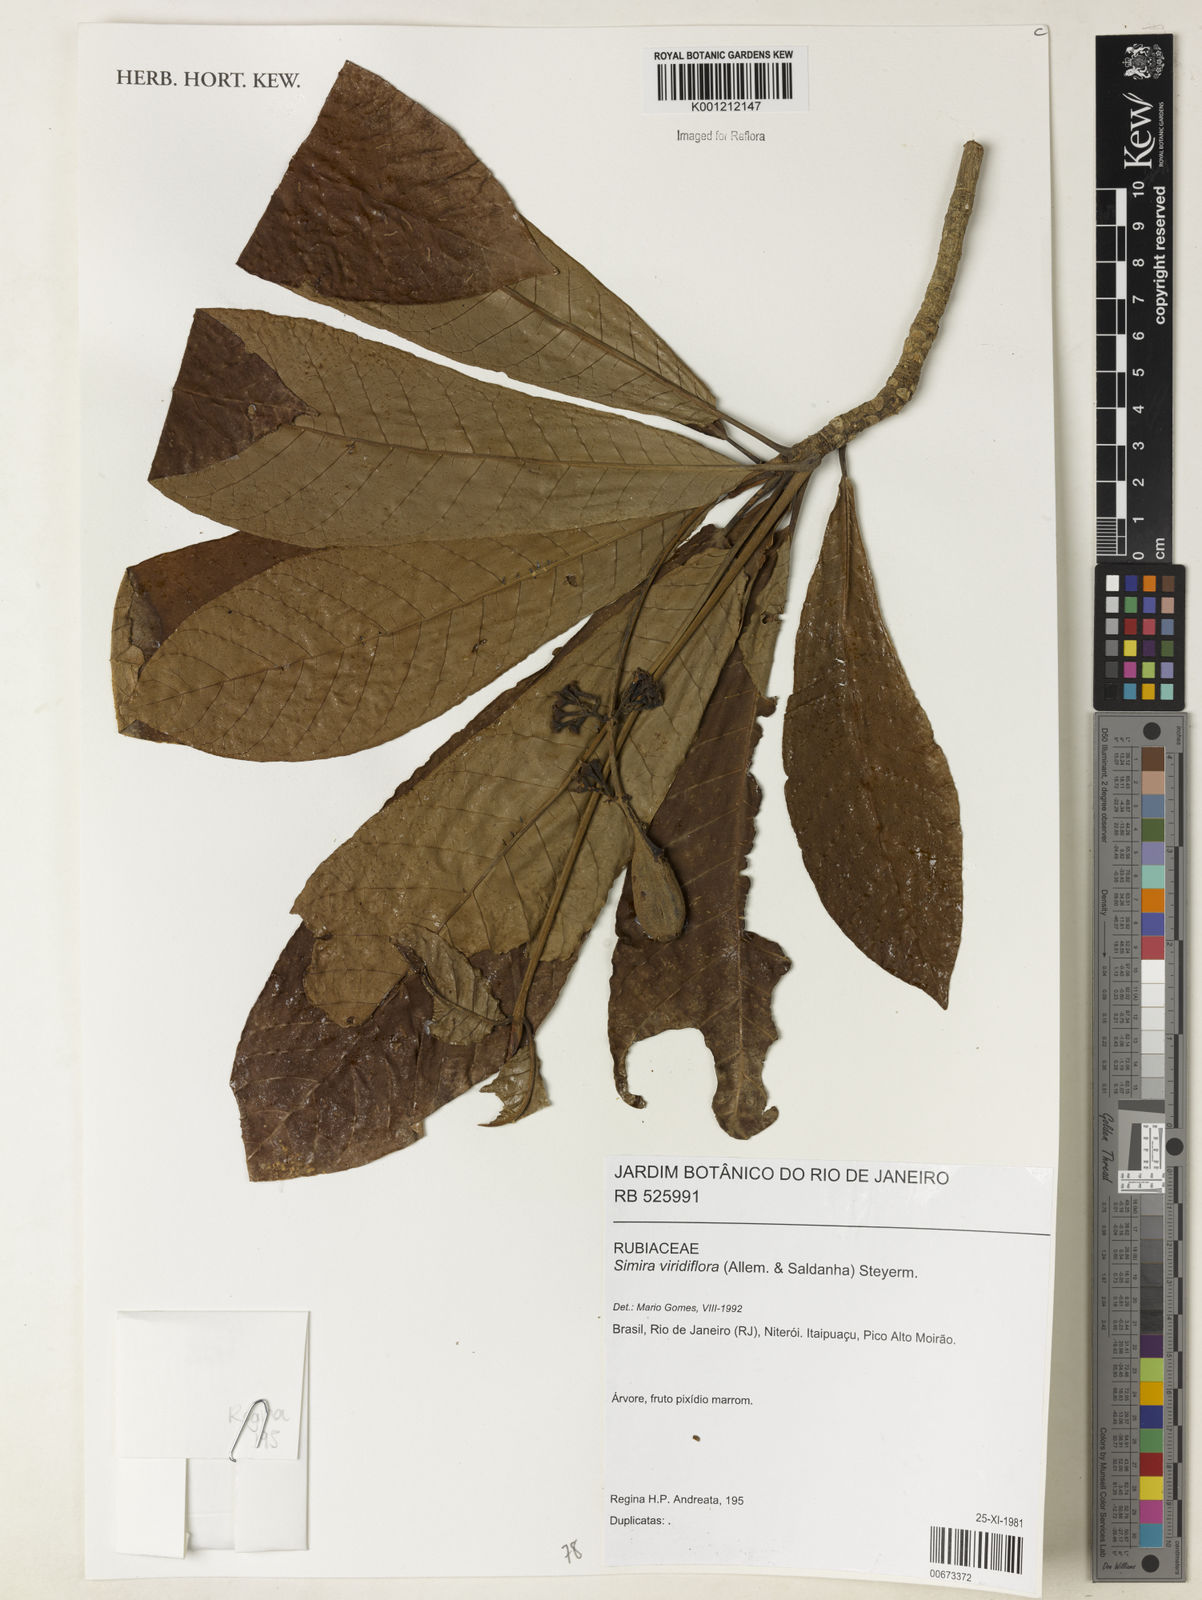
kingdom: Plantae
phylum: Tracheophyta
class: Magnoliopsida
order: Gentianales
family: Rubiaceae
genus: Simira
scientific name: Simira
